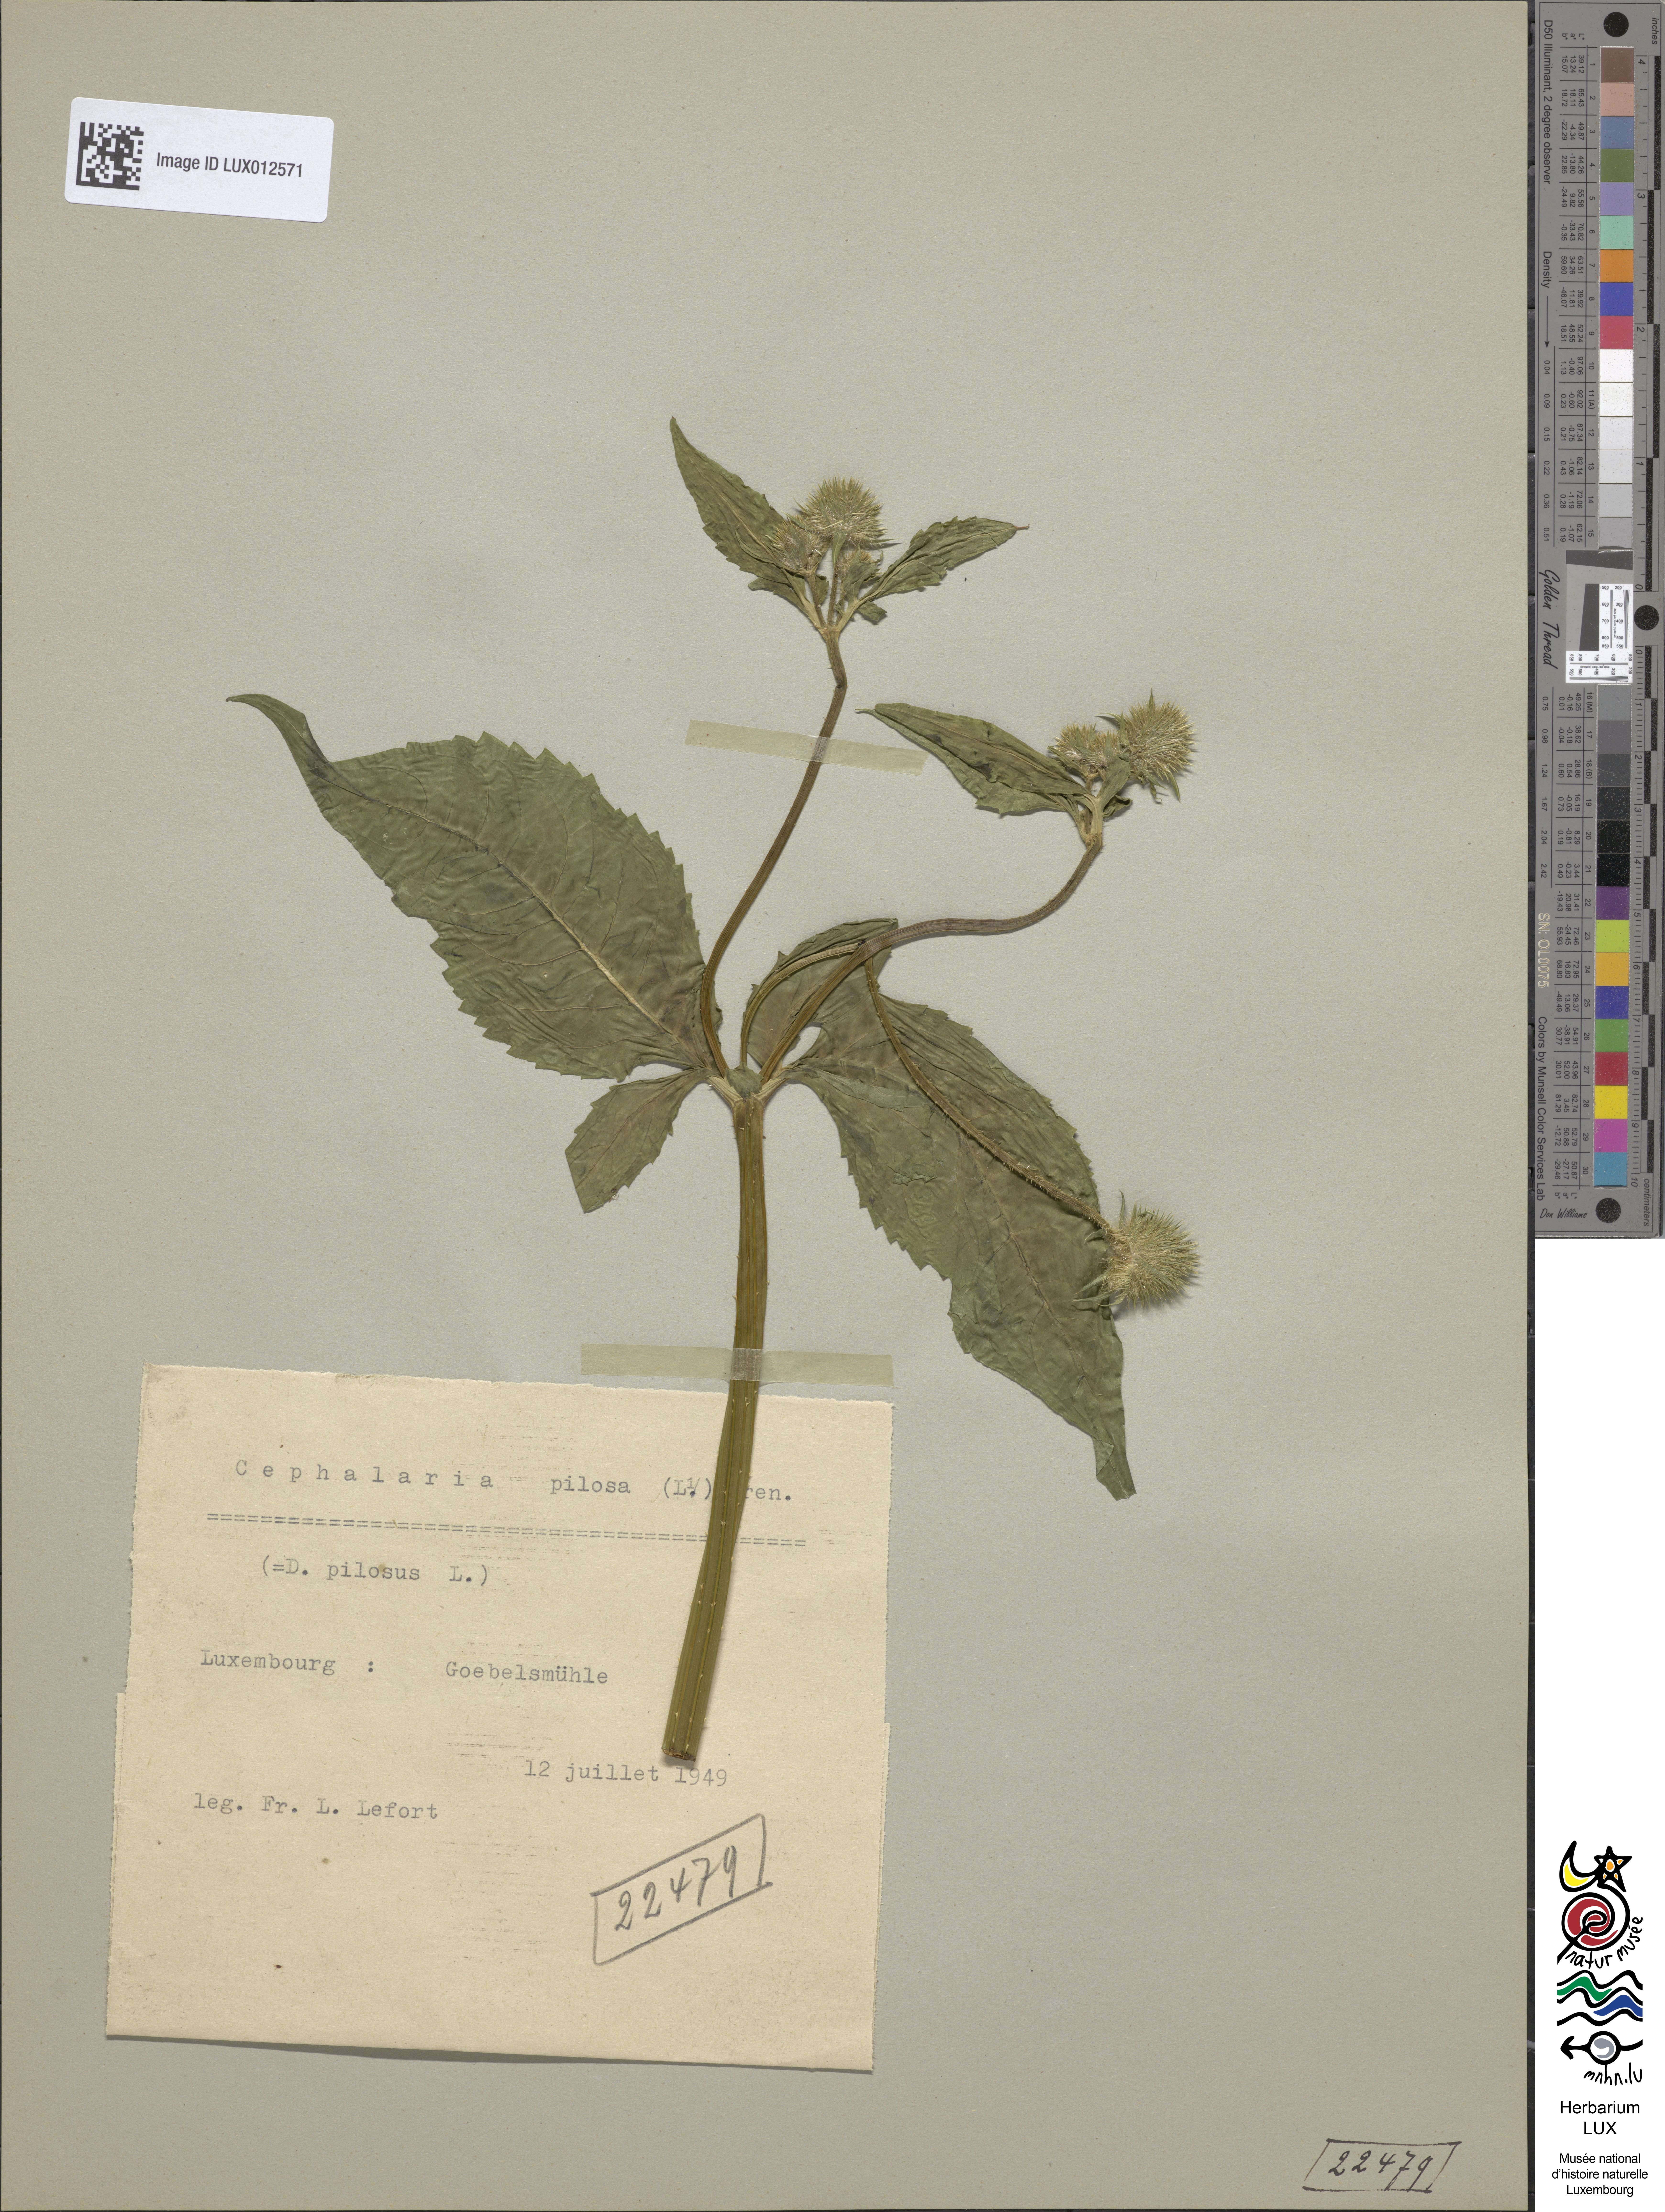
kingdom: Plantae
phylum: Tracheophyta
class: Magnoliopsida
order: Dipsacales
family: Caprifoliaceae
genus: Dipsacus
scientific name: Dipsacus pilosus
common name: Small teasel
